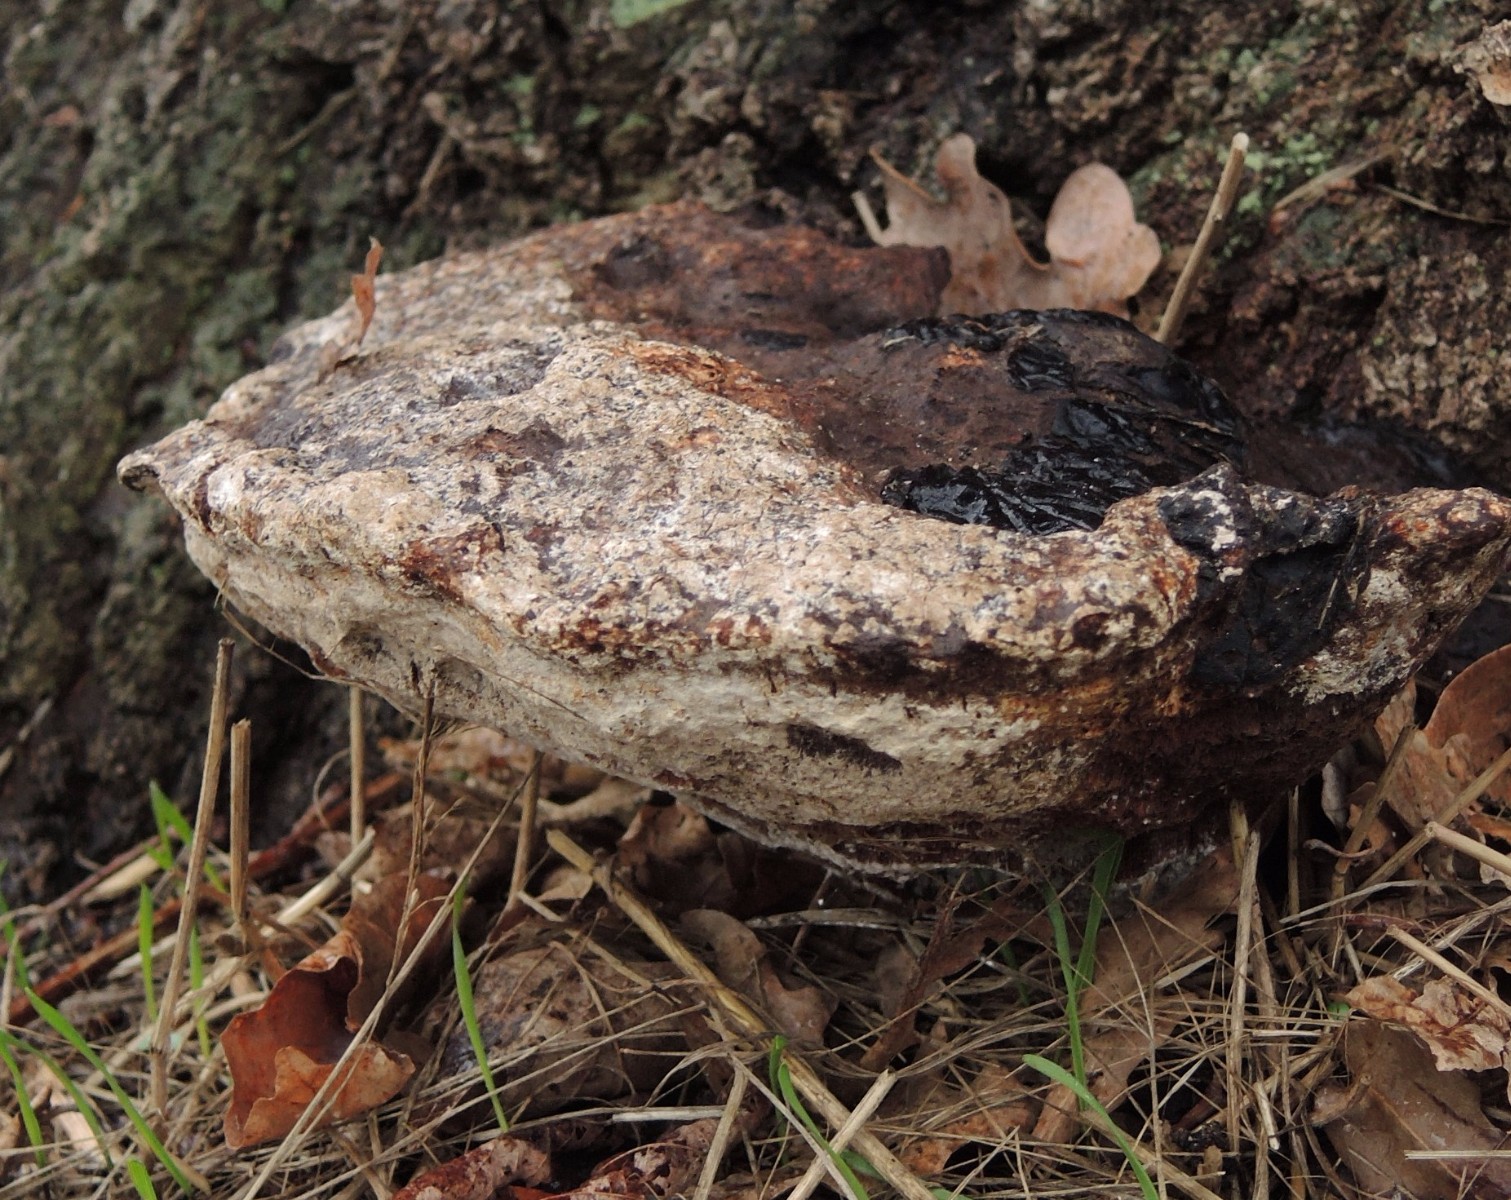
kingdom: Fungi
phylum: Basidiomycota
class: Agaricomycetes
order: Hymenochaetales
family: Hymenochaetaceae
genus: Pseudoinonotus
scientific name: Pseudoinonotus dryadeus
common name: ege-spejlporesvamp
